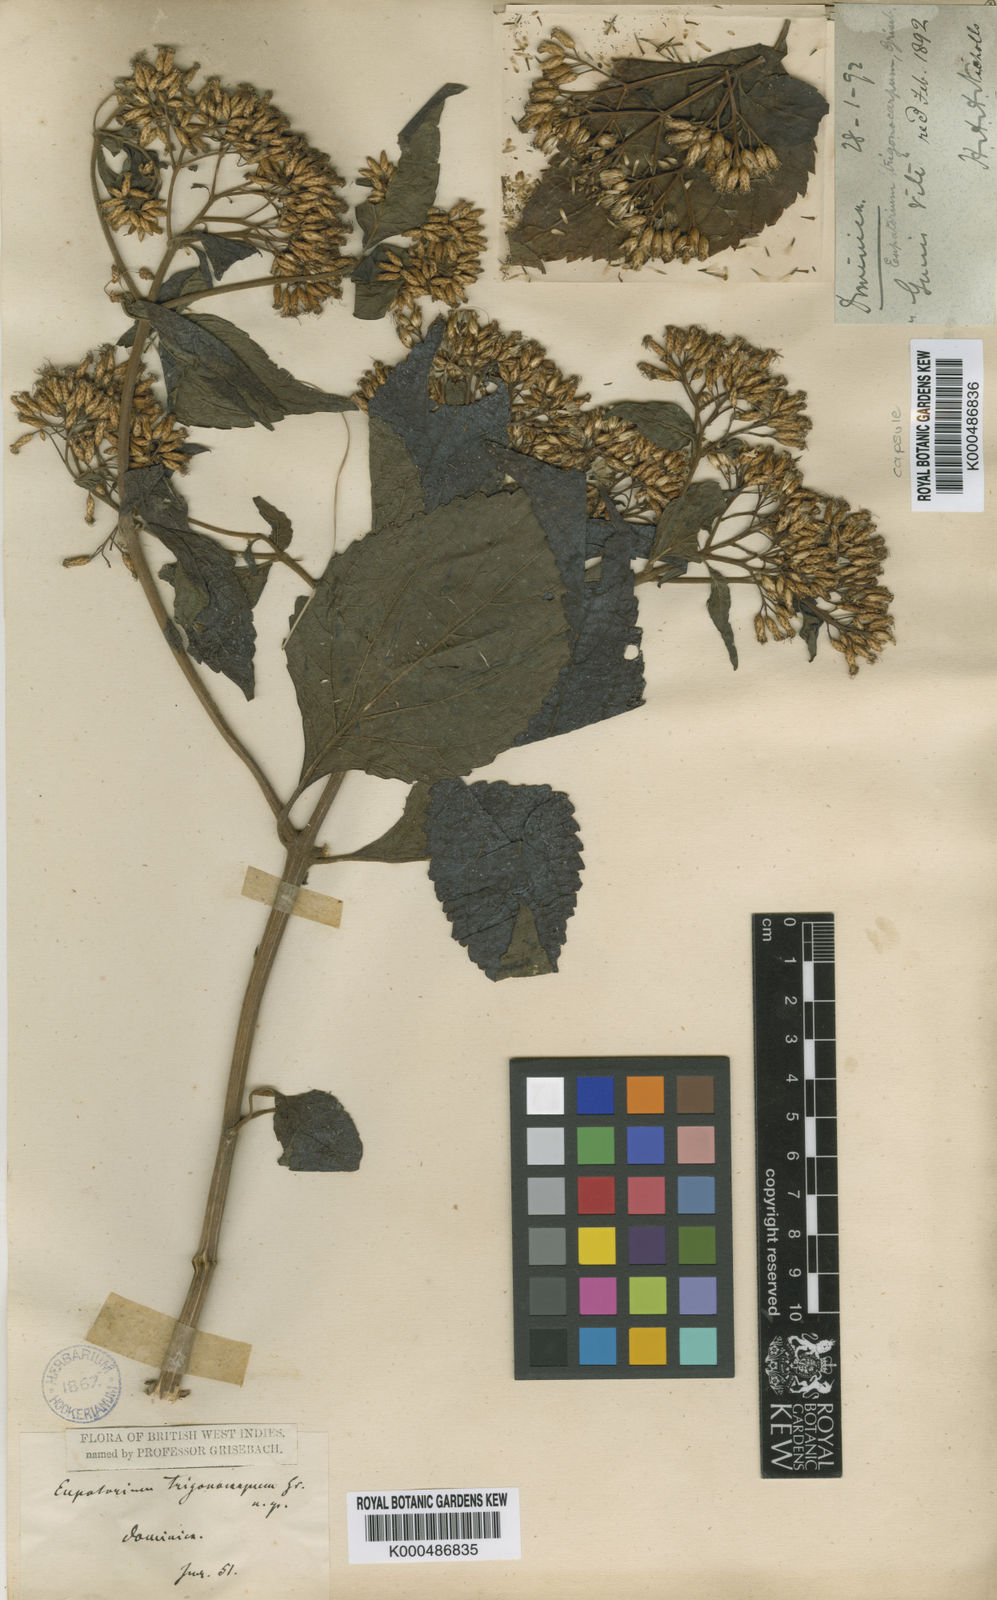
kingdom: Plantae
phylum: Tracheophyta
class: Magnoliopsida
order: Asterales
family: Asteraceae
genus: Chromolaena
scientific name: Chromolaena trigonocarpa
